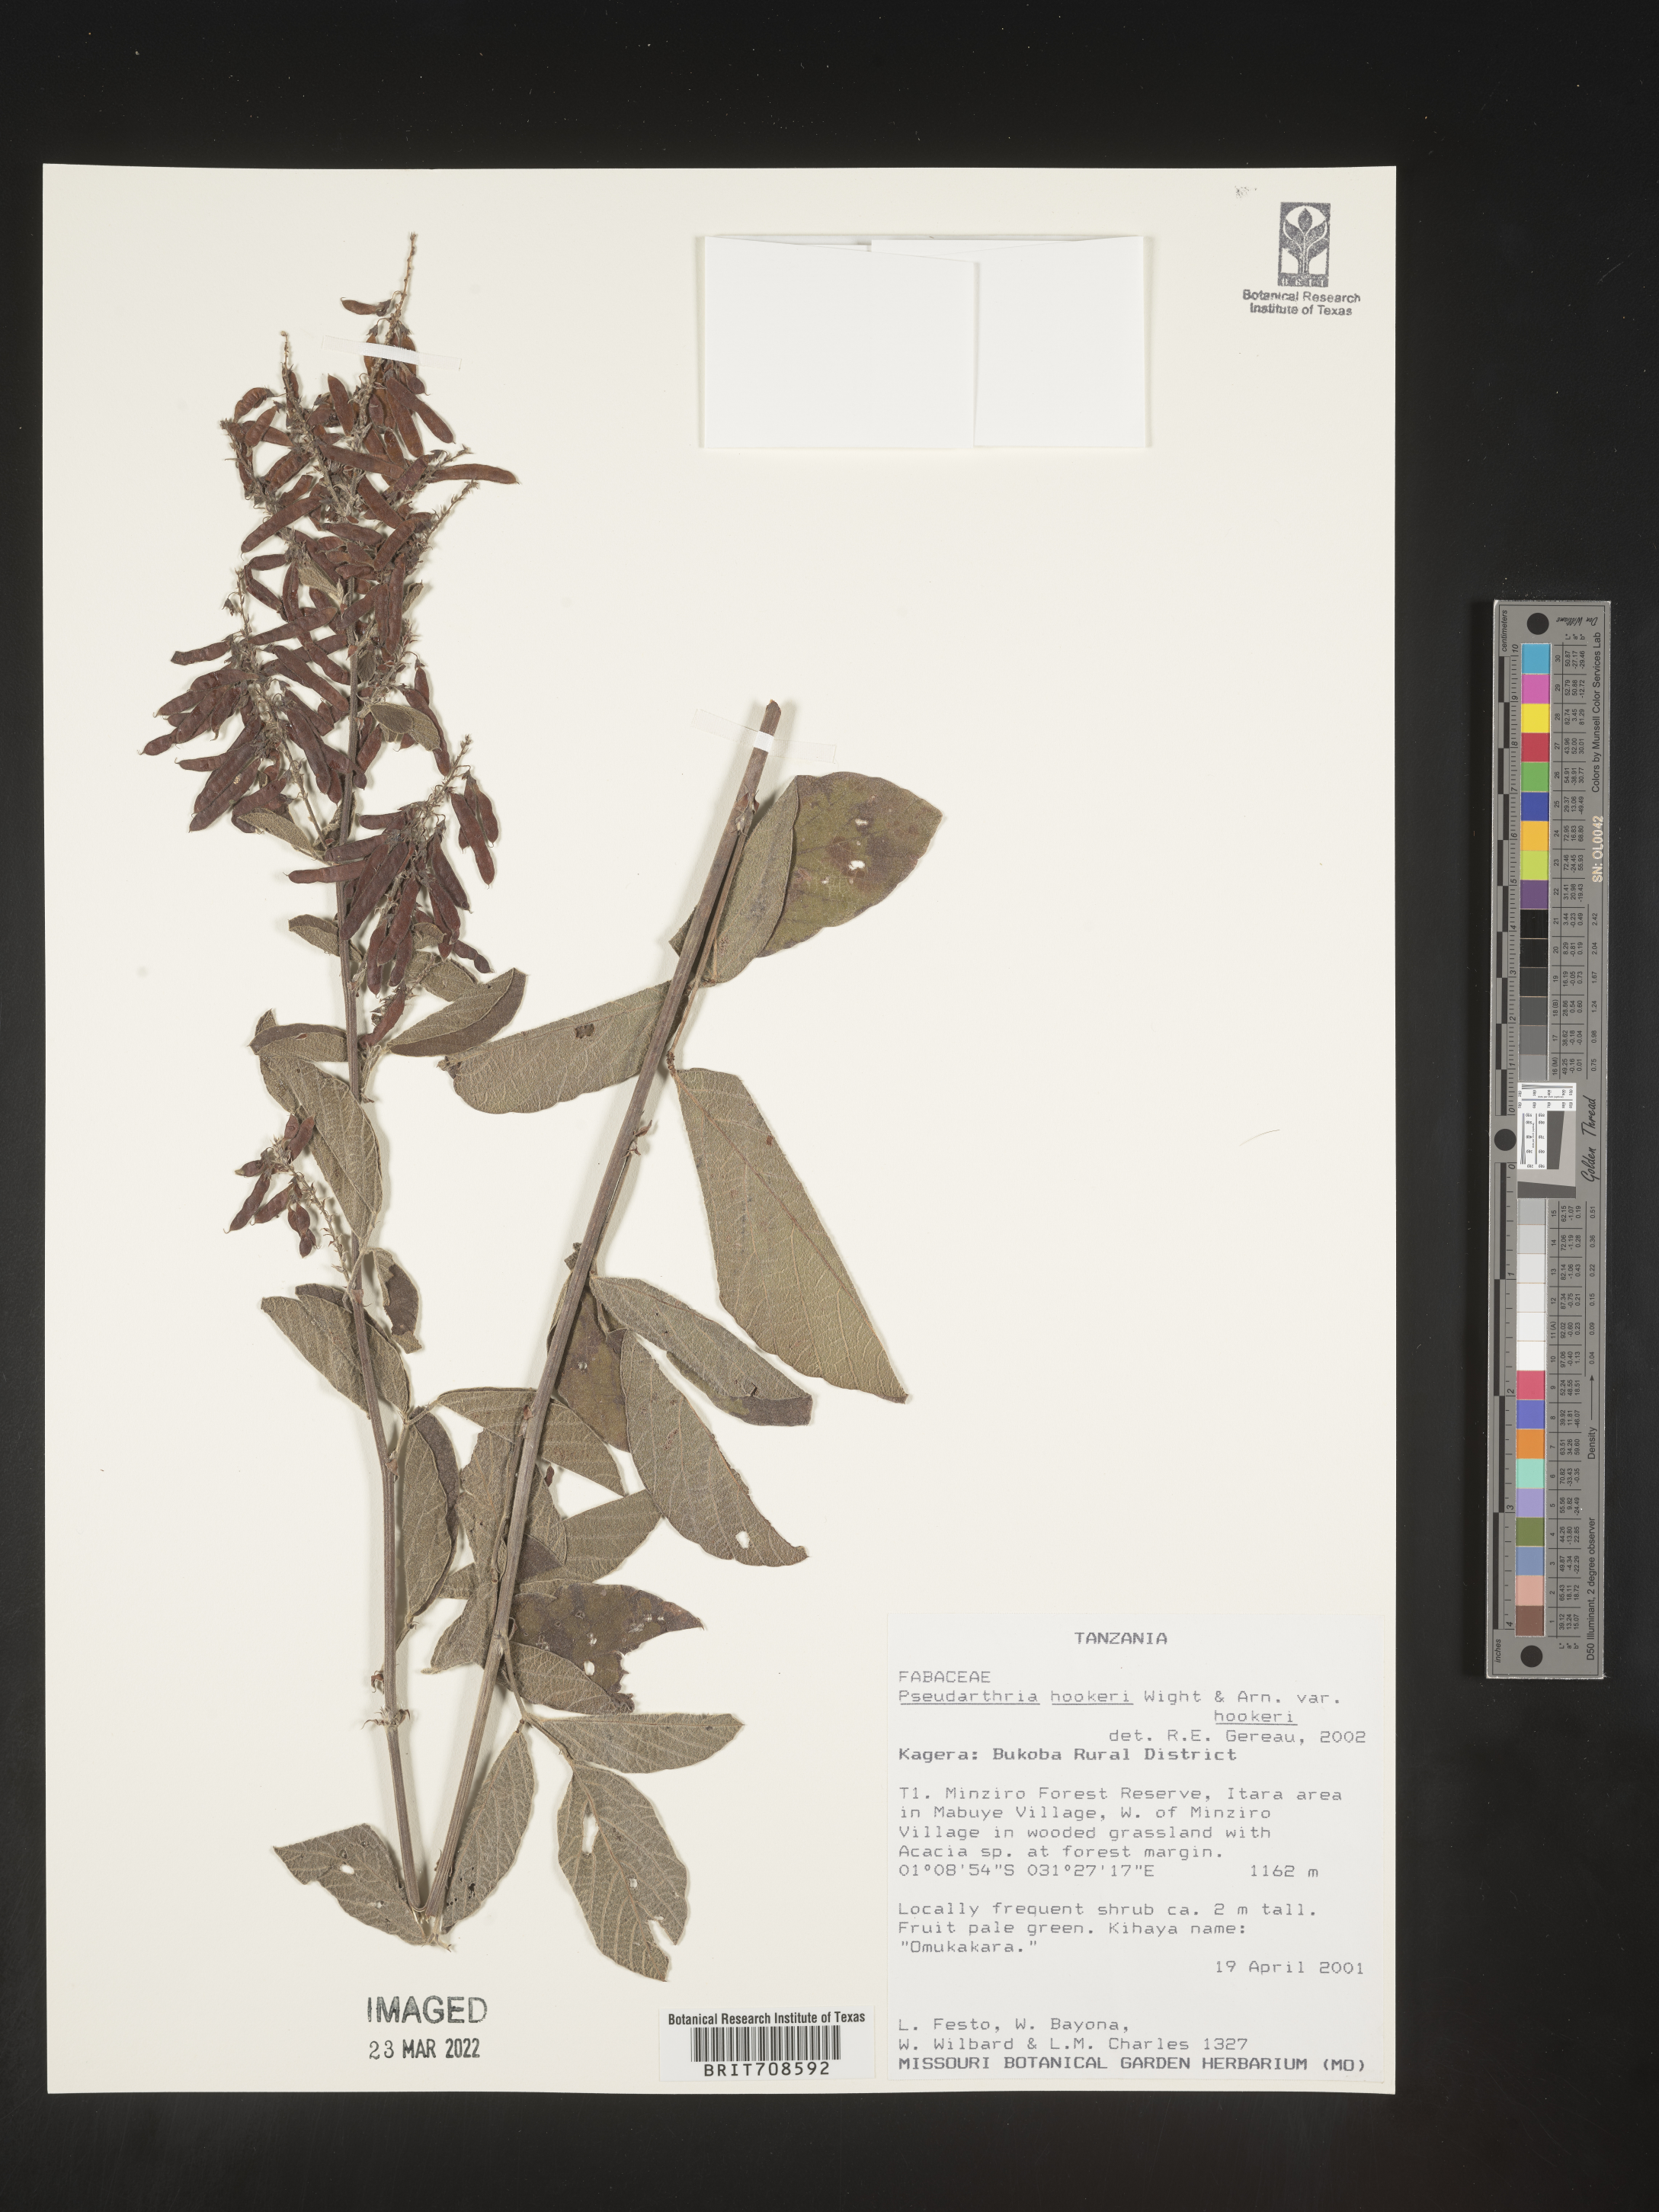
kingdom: Plantae
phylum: Tracheophyta
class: Magnoliopsida
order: Fabales
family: Fabaceae
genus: Pseudarthria
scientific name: Pseudarthria
